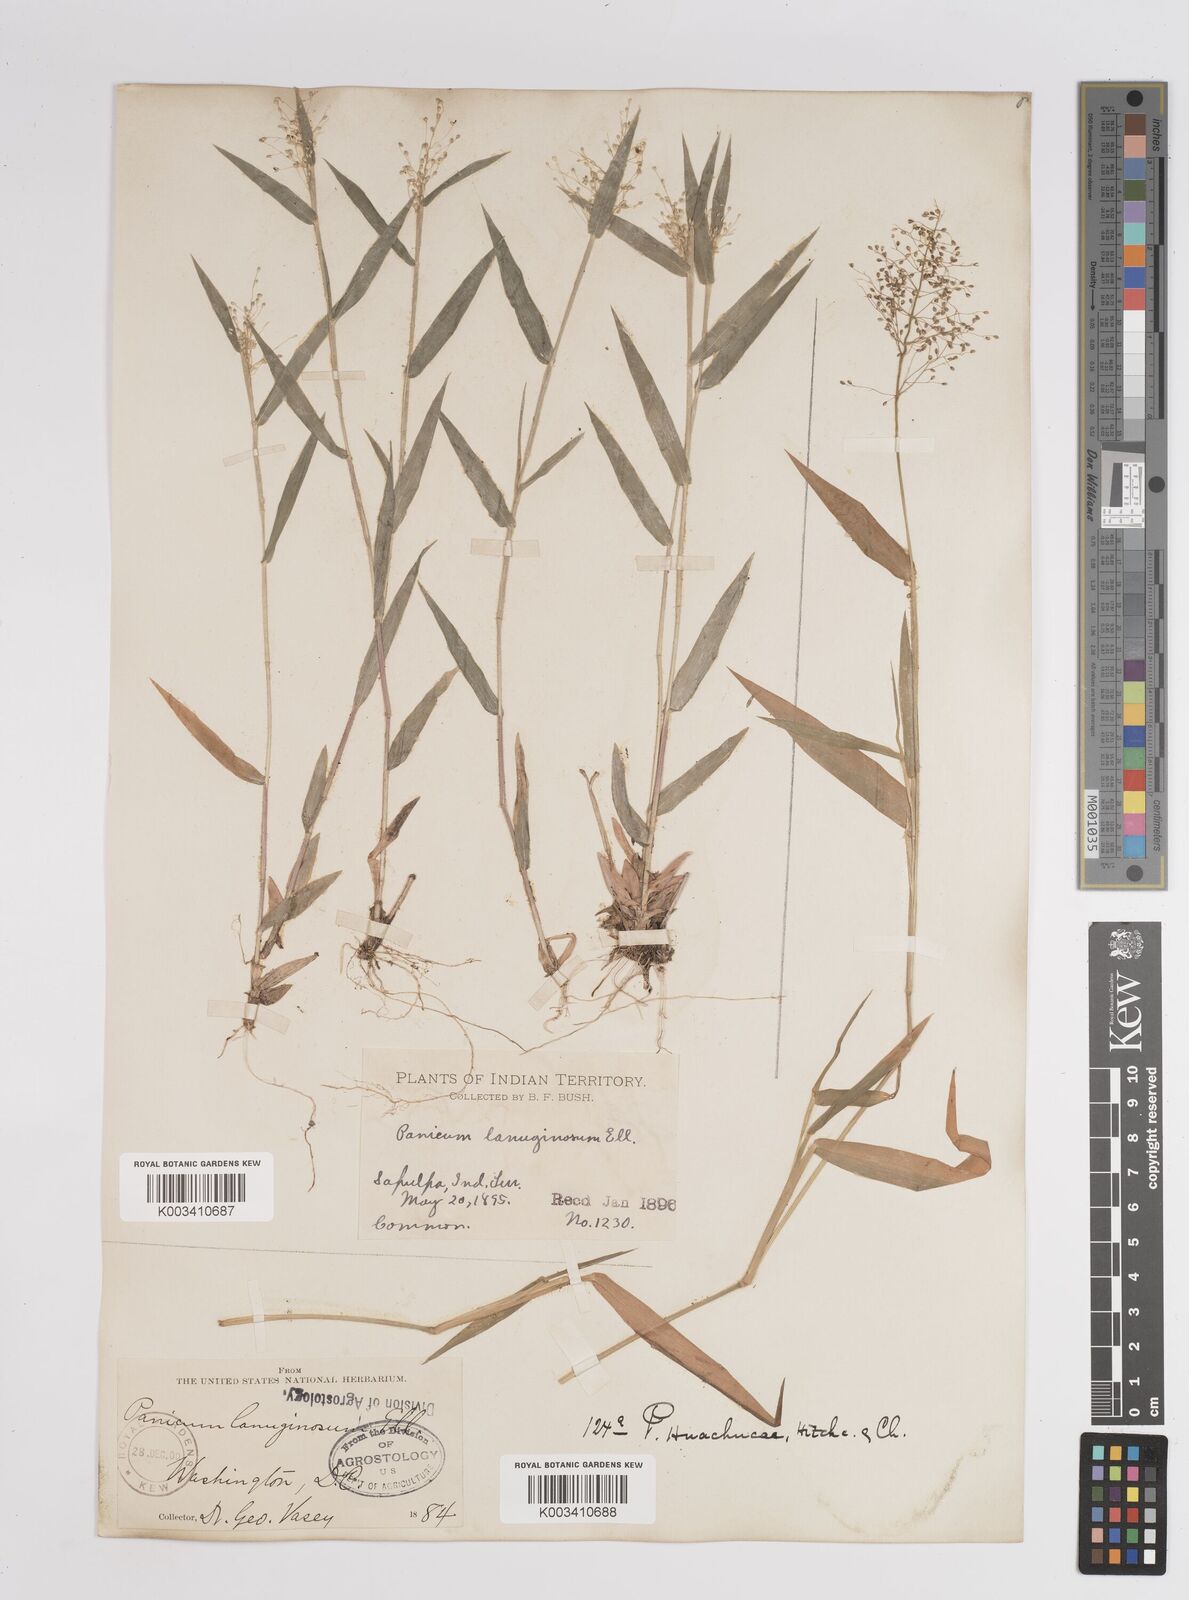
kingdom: Plantae
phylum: Tracheophyta
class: Liliopsida
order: Poales
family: Poaceae
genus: Dichanthelium
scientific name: Dichanthelium lanuginosum
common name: Woolly panicgrass
